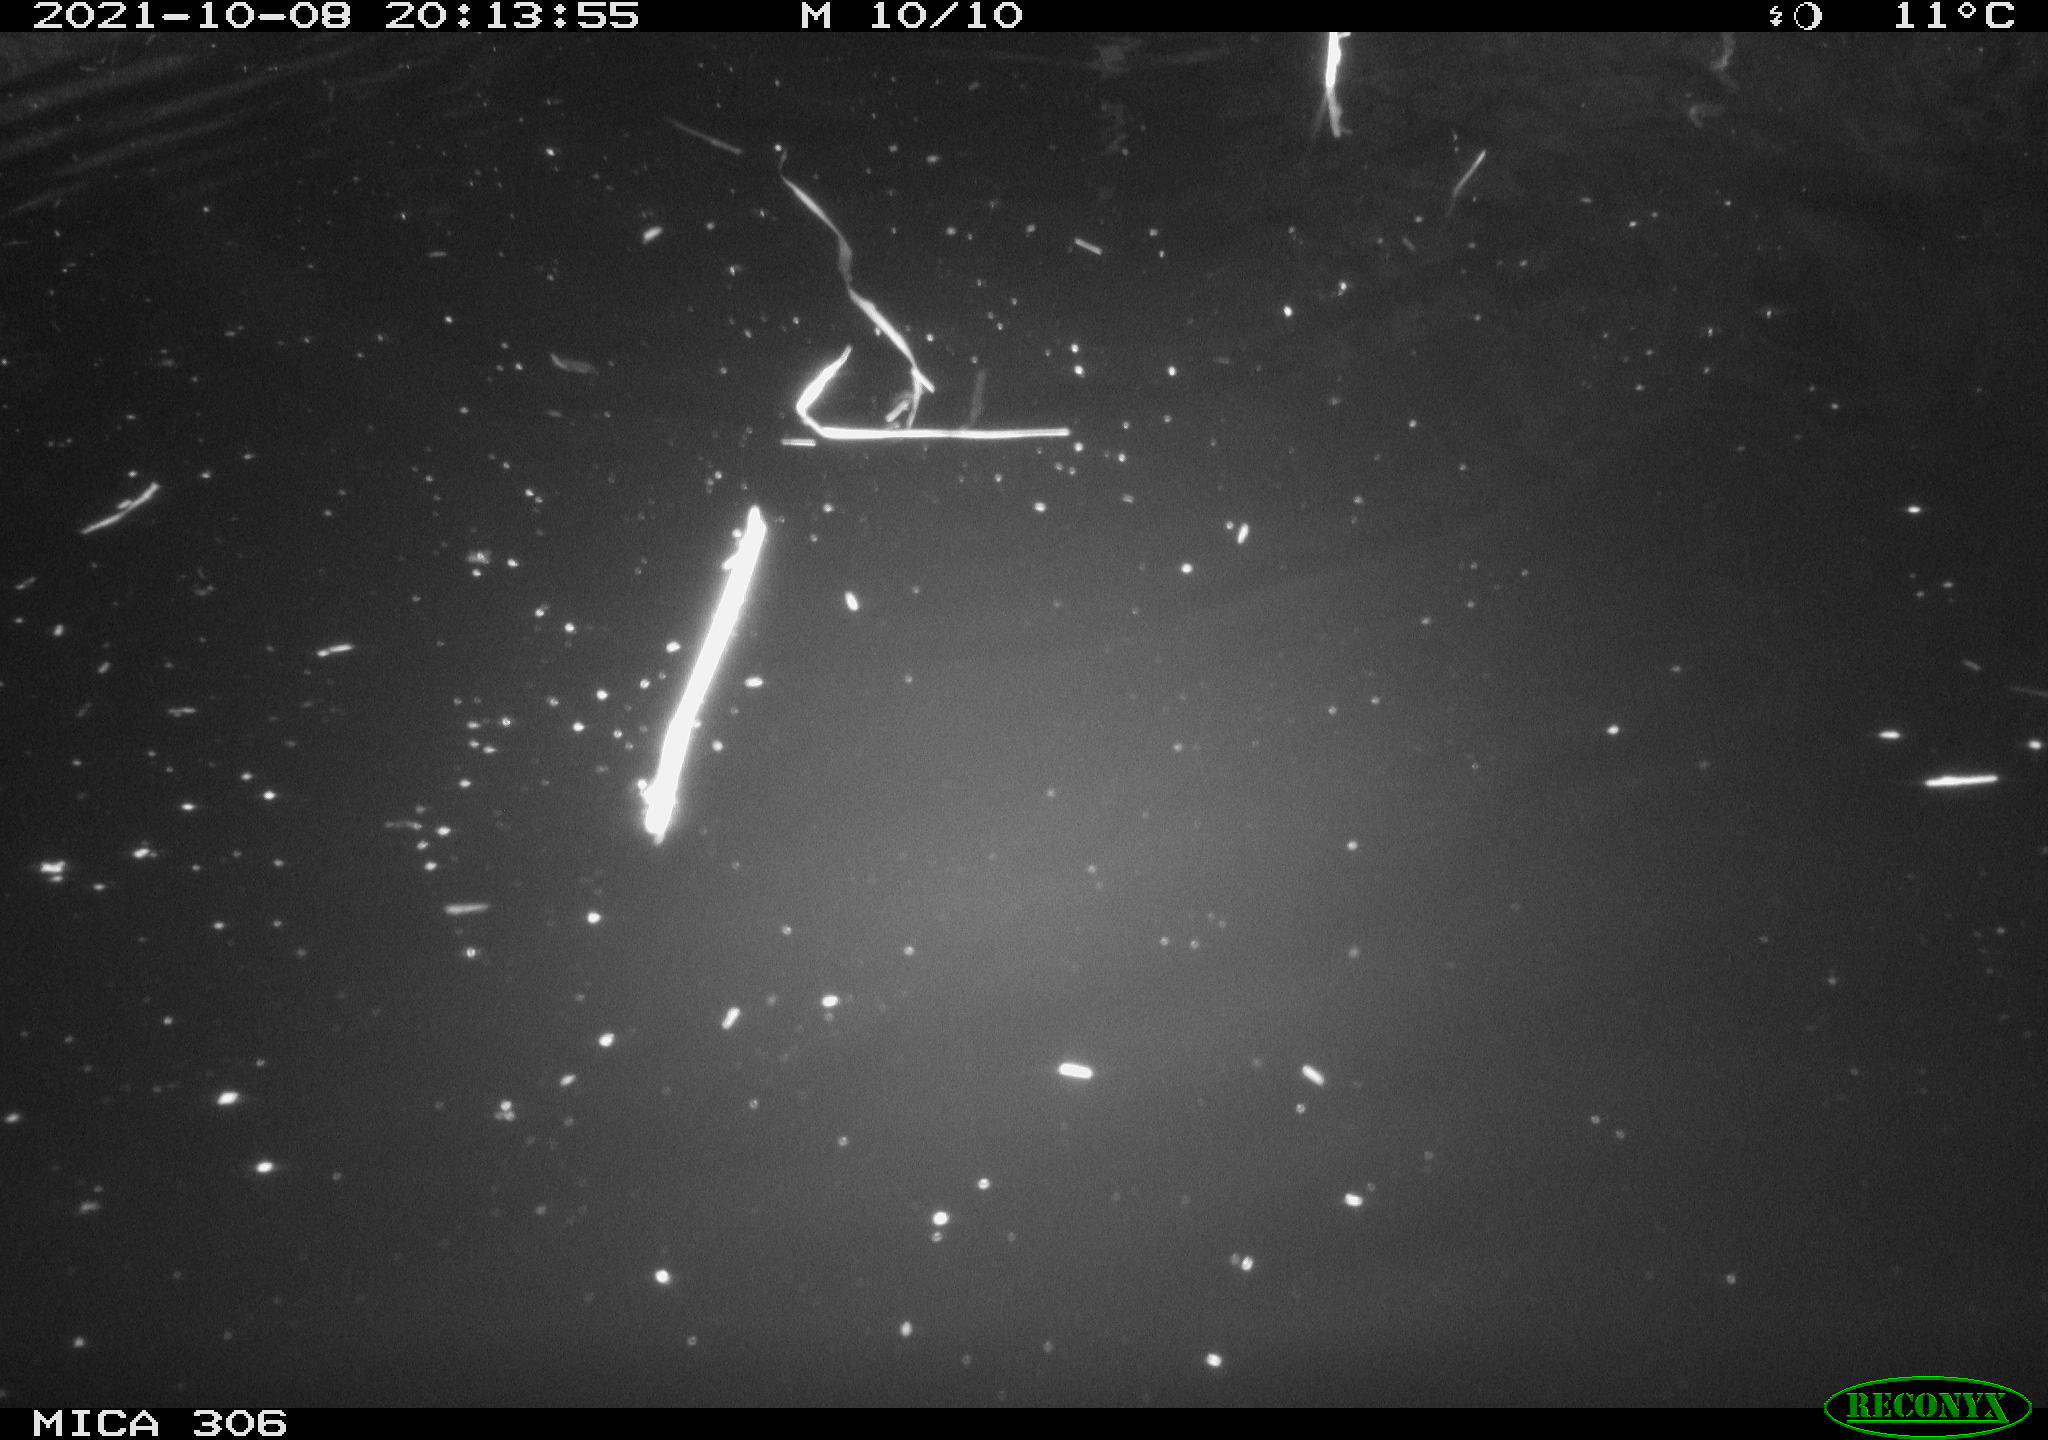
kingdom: Animalia
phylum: Chordata
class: Mammalia
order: Rodentia
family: Cricetidae
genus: Ondatra
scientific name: Ondatra zibethicus
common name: Muskrat
